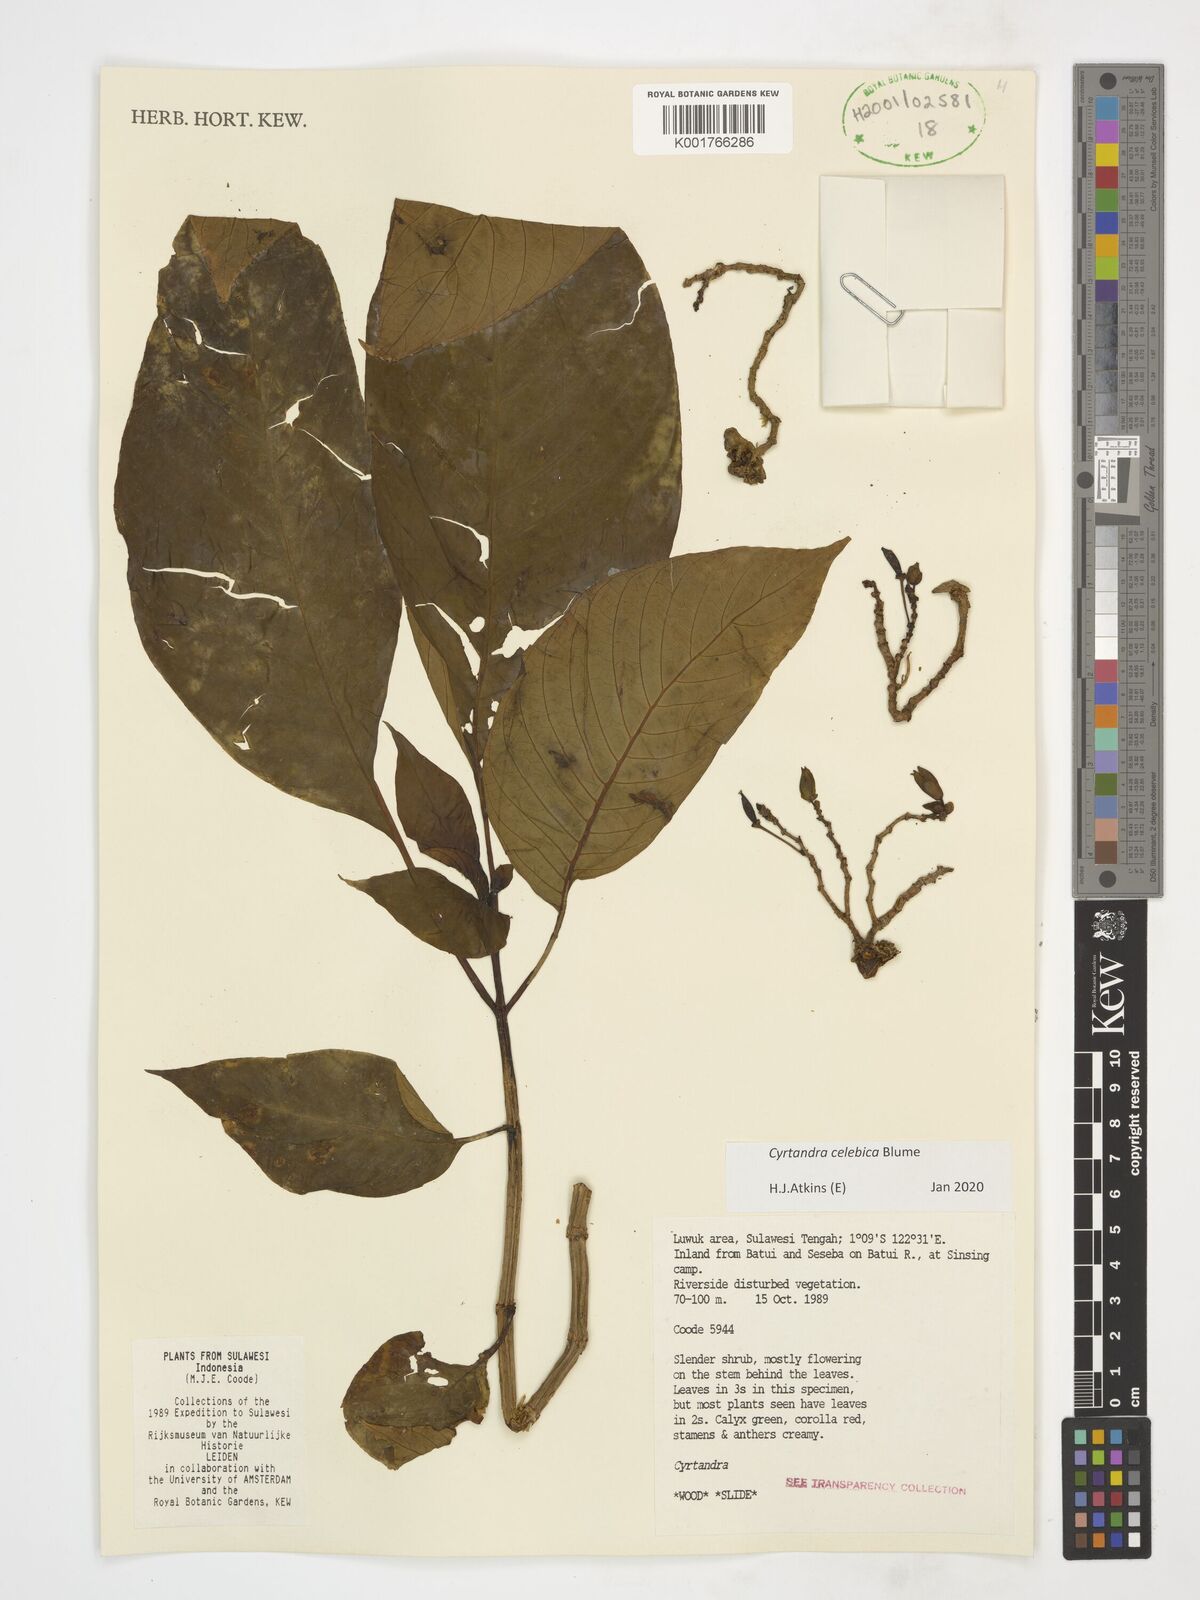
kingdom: Plantae
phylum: Tracheophyta
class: Magnoliopsida
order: Lamiales
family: Gesneriaceae
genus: Cyrtandra
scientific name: Cyrtandra coccinea
